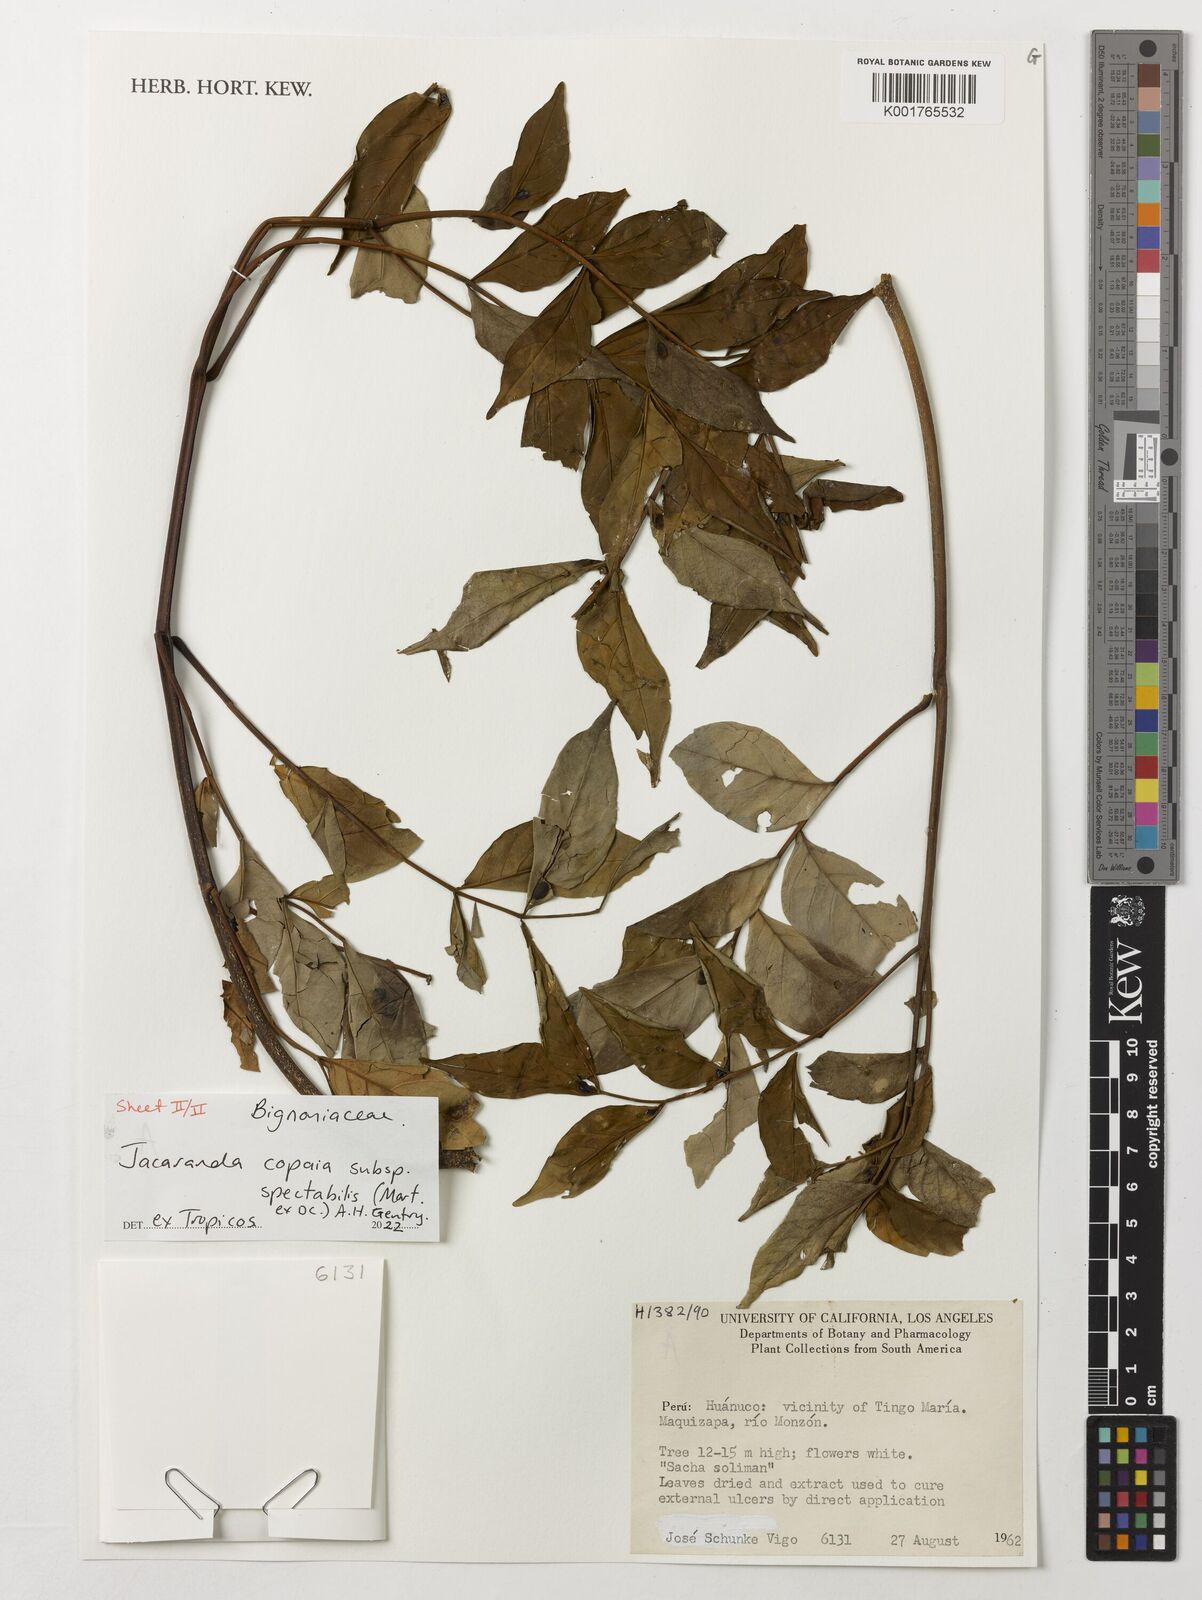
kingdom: Plantae
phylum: Tracheophyta
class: Magnoliopsida
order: Lamiales
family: Bignoniaceae
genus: Jacaranda
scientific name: Jacaranda copaia
